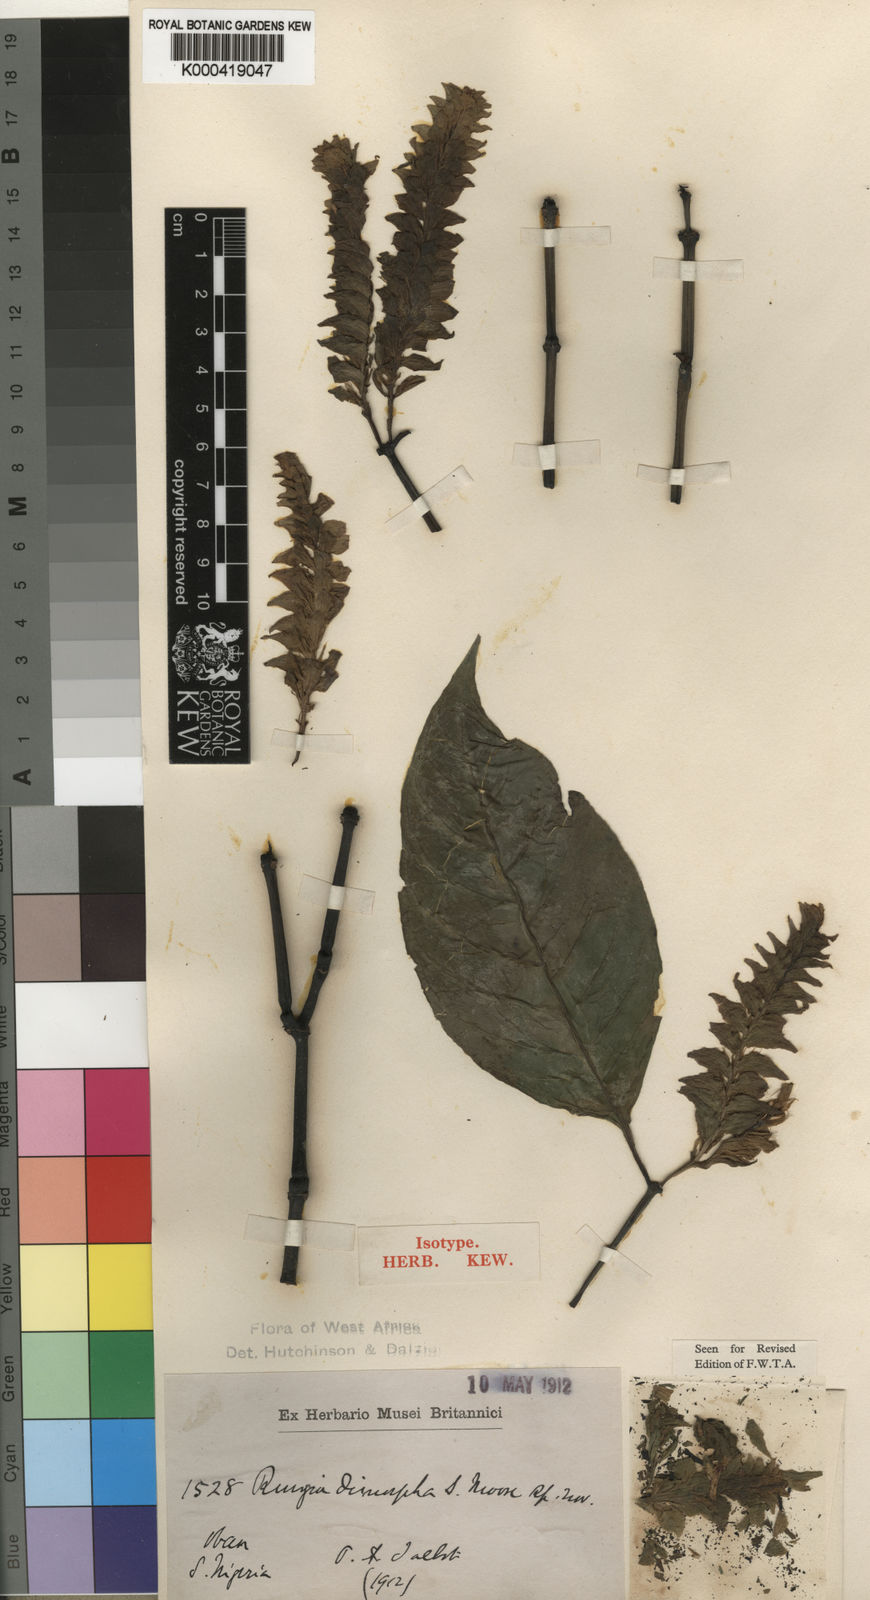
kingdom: Plantae
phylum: Tracheophyta
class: Magnoliopsida
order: Lamiales
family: Acanthaceae
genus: Justicia
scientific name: Justicia
